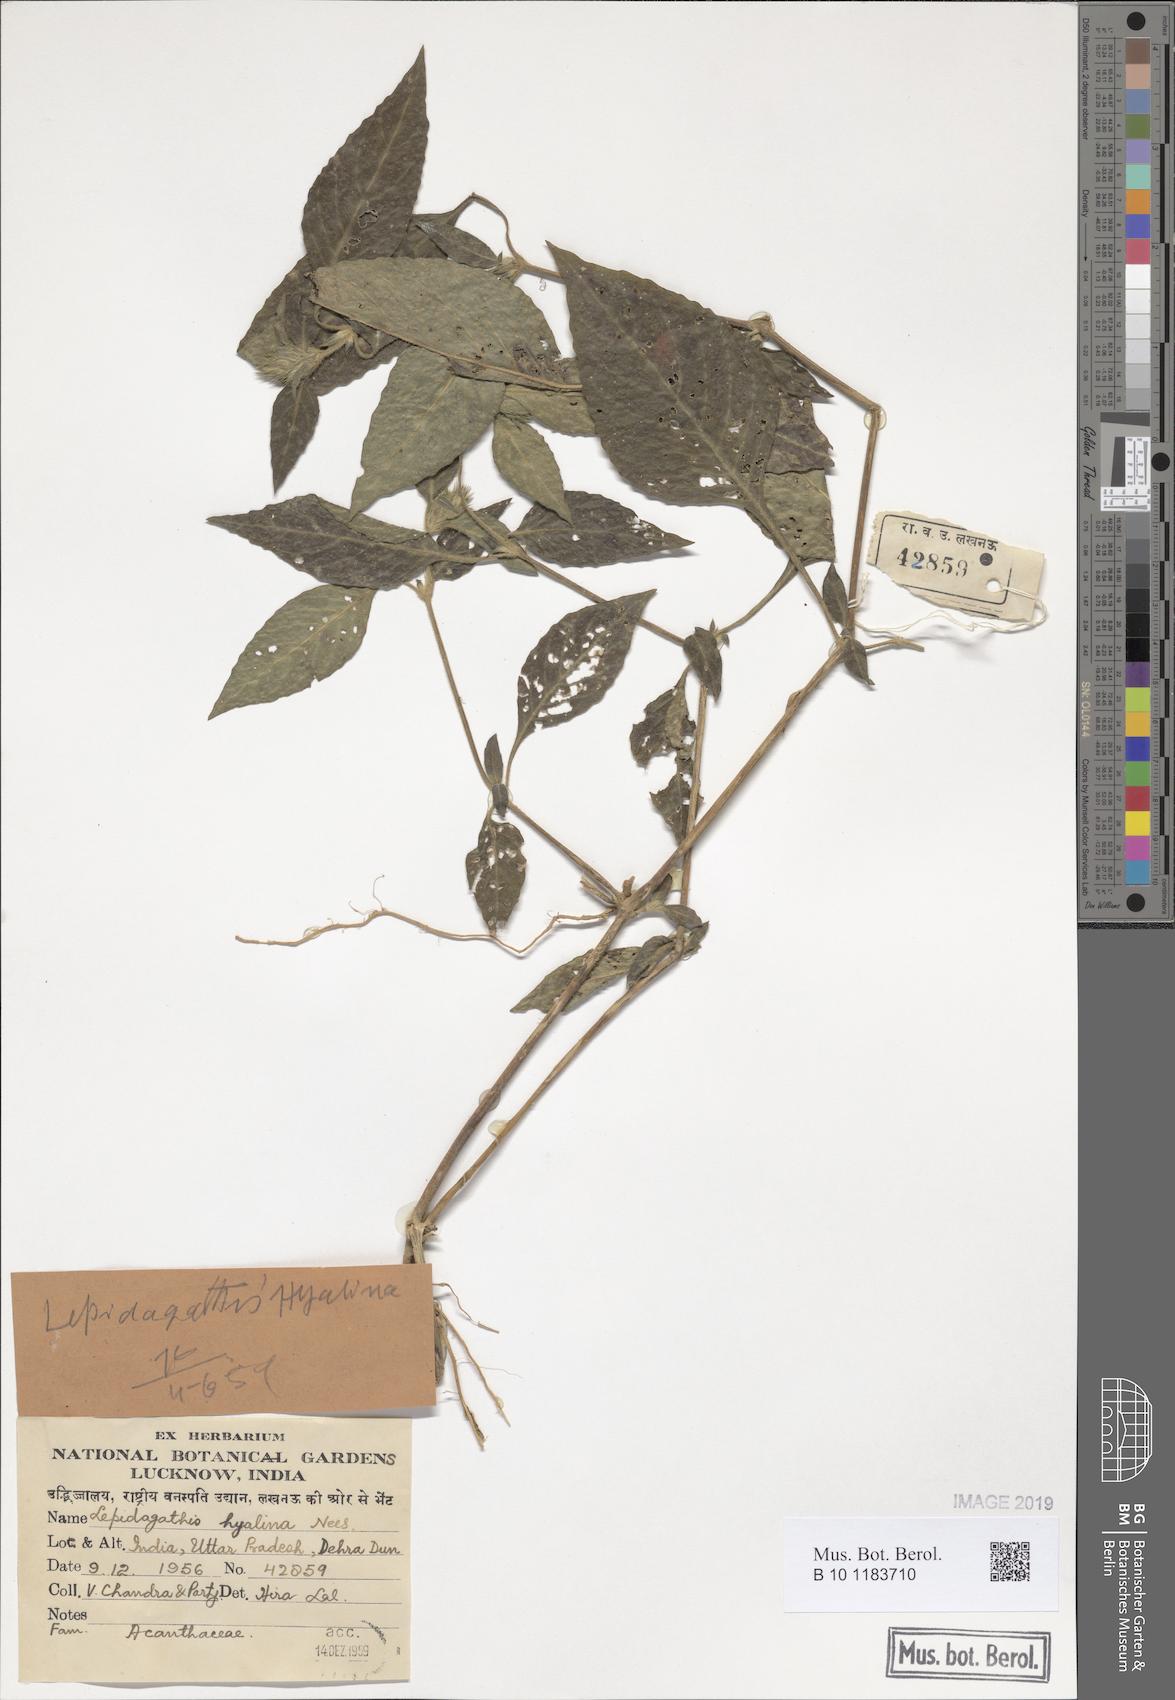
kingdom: Plantae
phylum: Tracheophyta
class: Magnoliopsida
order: Lamiales
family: Acanthaceae
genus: Lepidagathis
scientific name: Lepidagathis incurva
